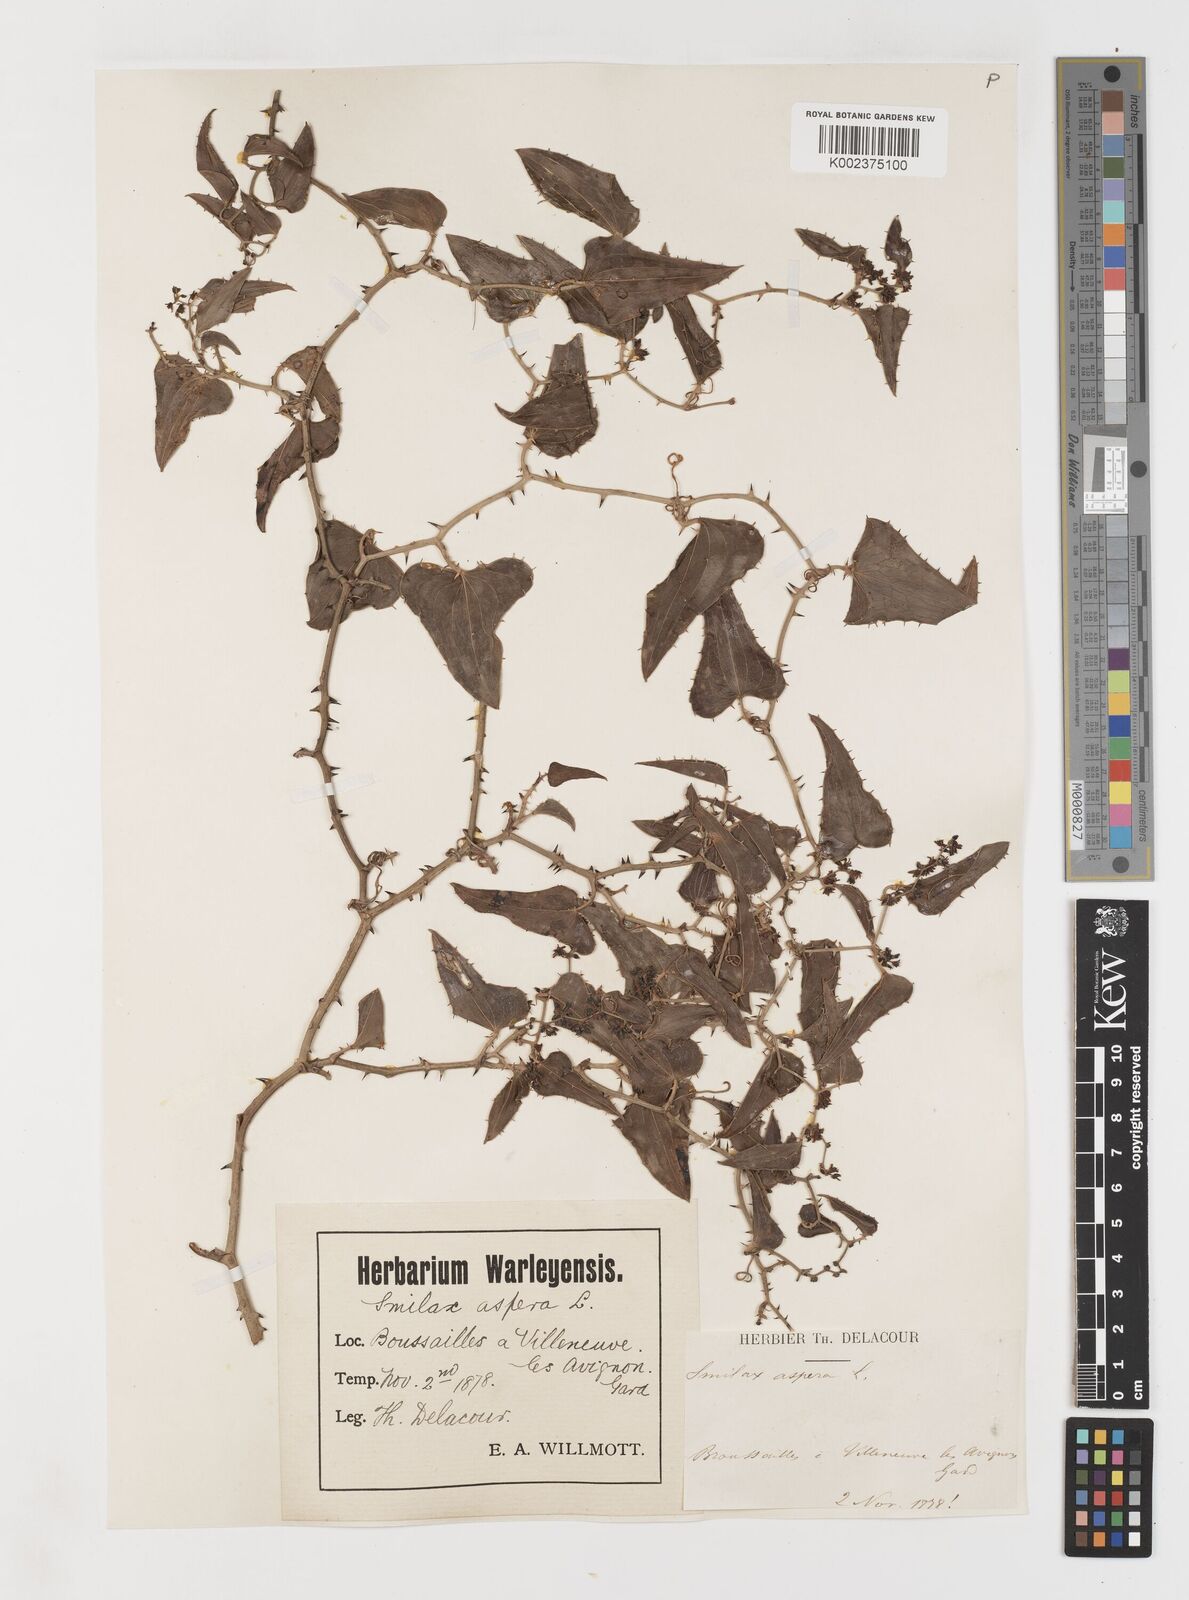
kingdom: Plantae
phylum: Tracheophyta
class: Liliopsida
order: Liliales
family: Smilacaceae
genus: Smilax
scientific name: Smilax aspera
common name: Common smilax
